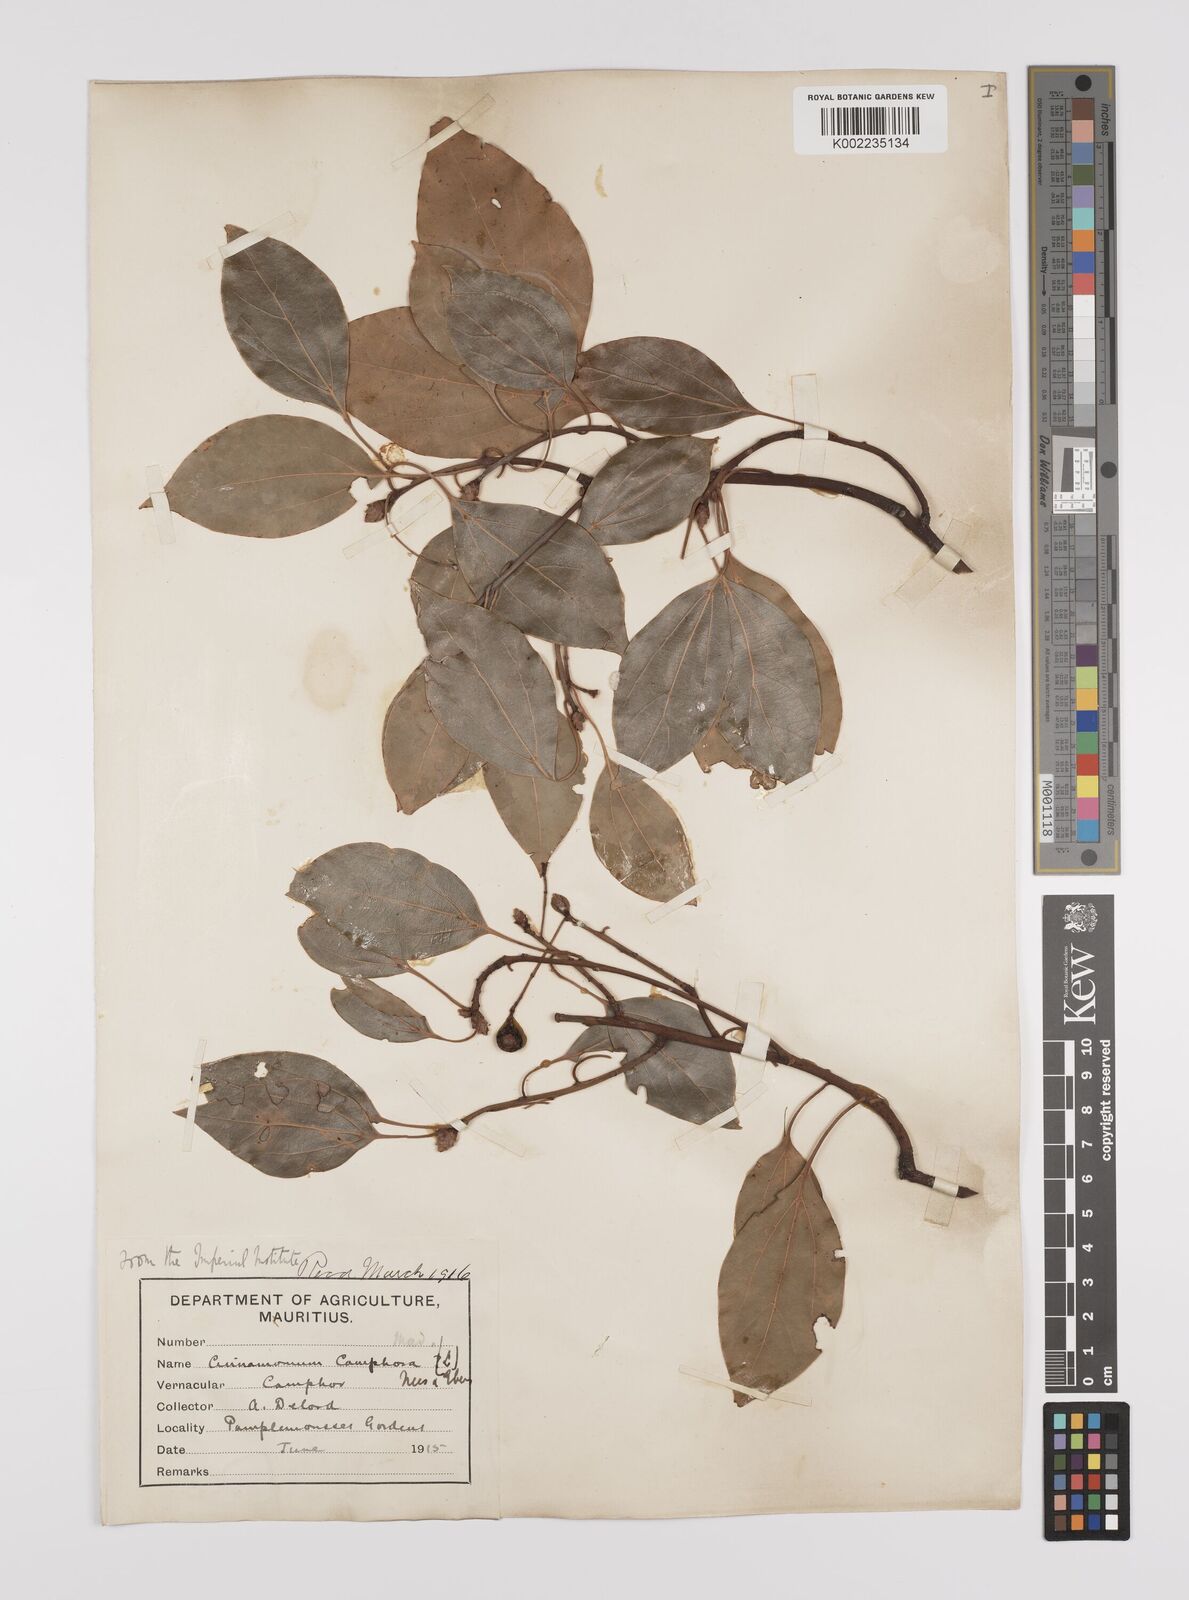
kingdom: Plantae
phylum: Tracheophyta
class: Magnoliopsida
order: Laurales
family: Lauraceae
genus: Cinnamomum
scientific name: Cinnamomum camphora
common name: Camphortree
